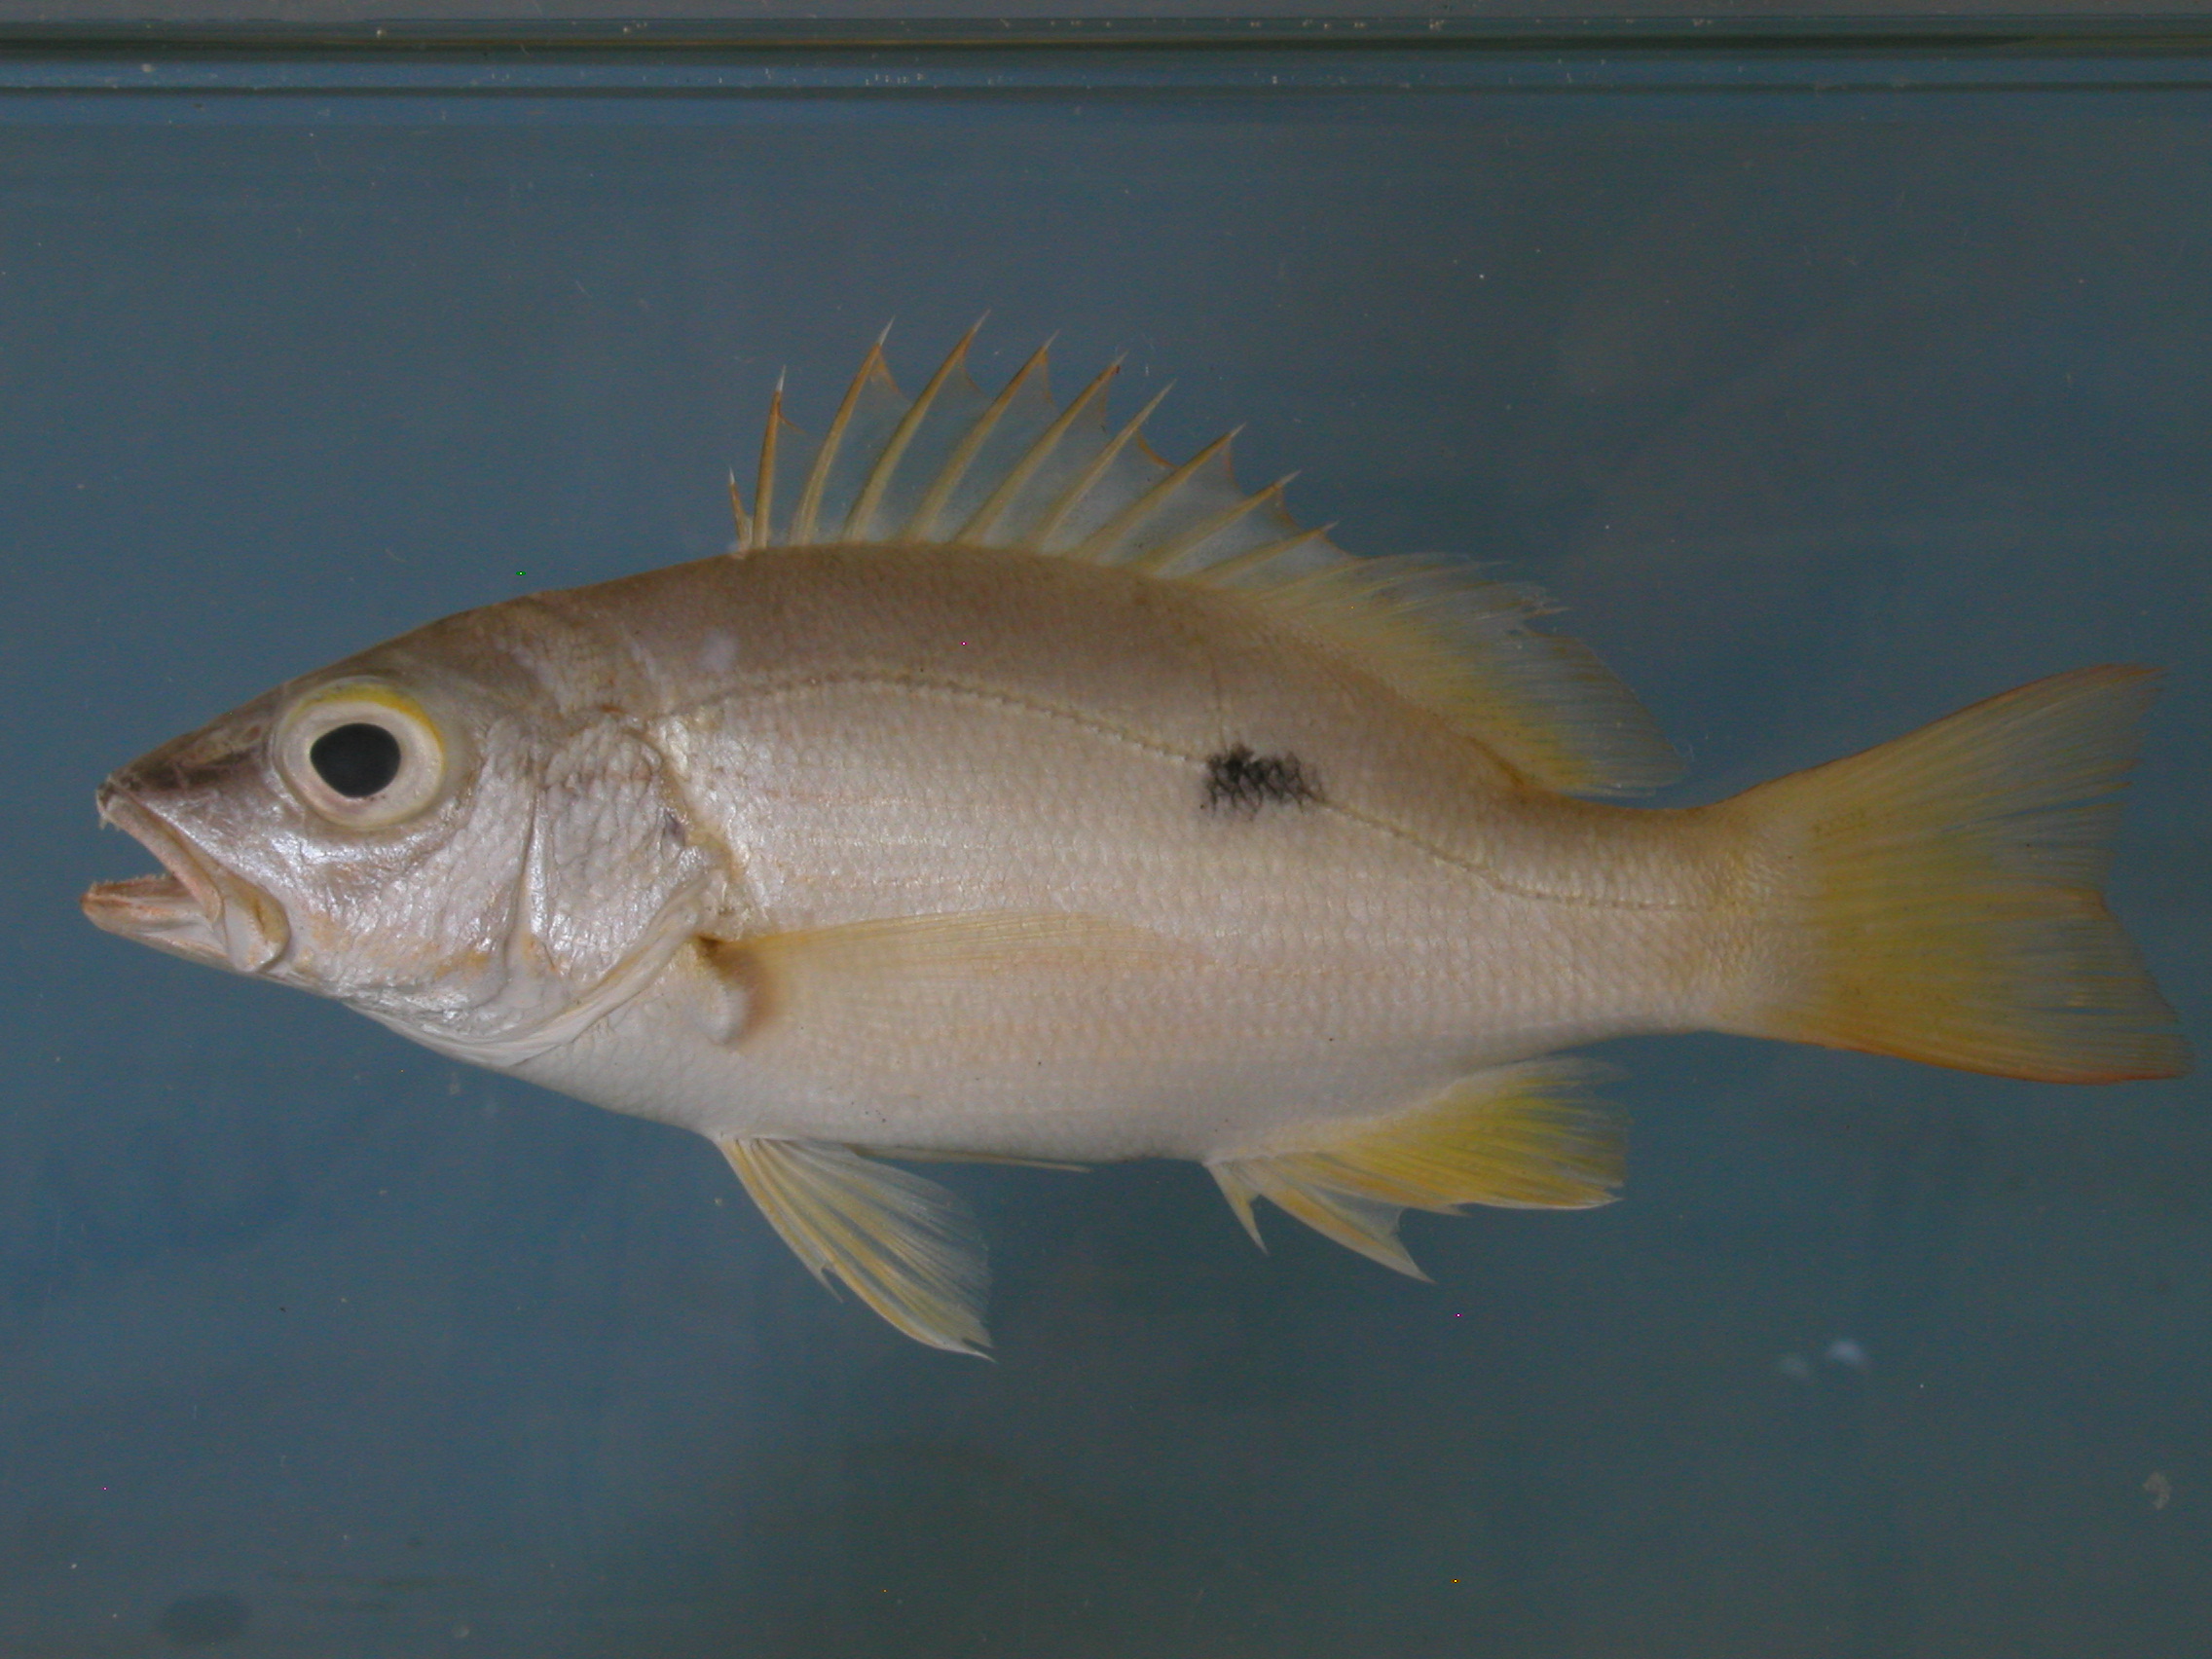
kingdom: Animalia
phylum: Chordata
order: Perciformes
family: Lutjanidae
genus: Lutjanus
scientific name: Lutjanus fulviflamma
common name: Blackspot snapper
